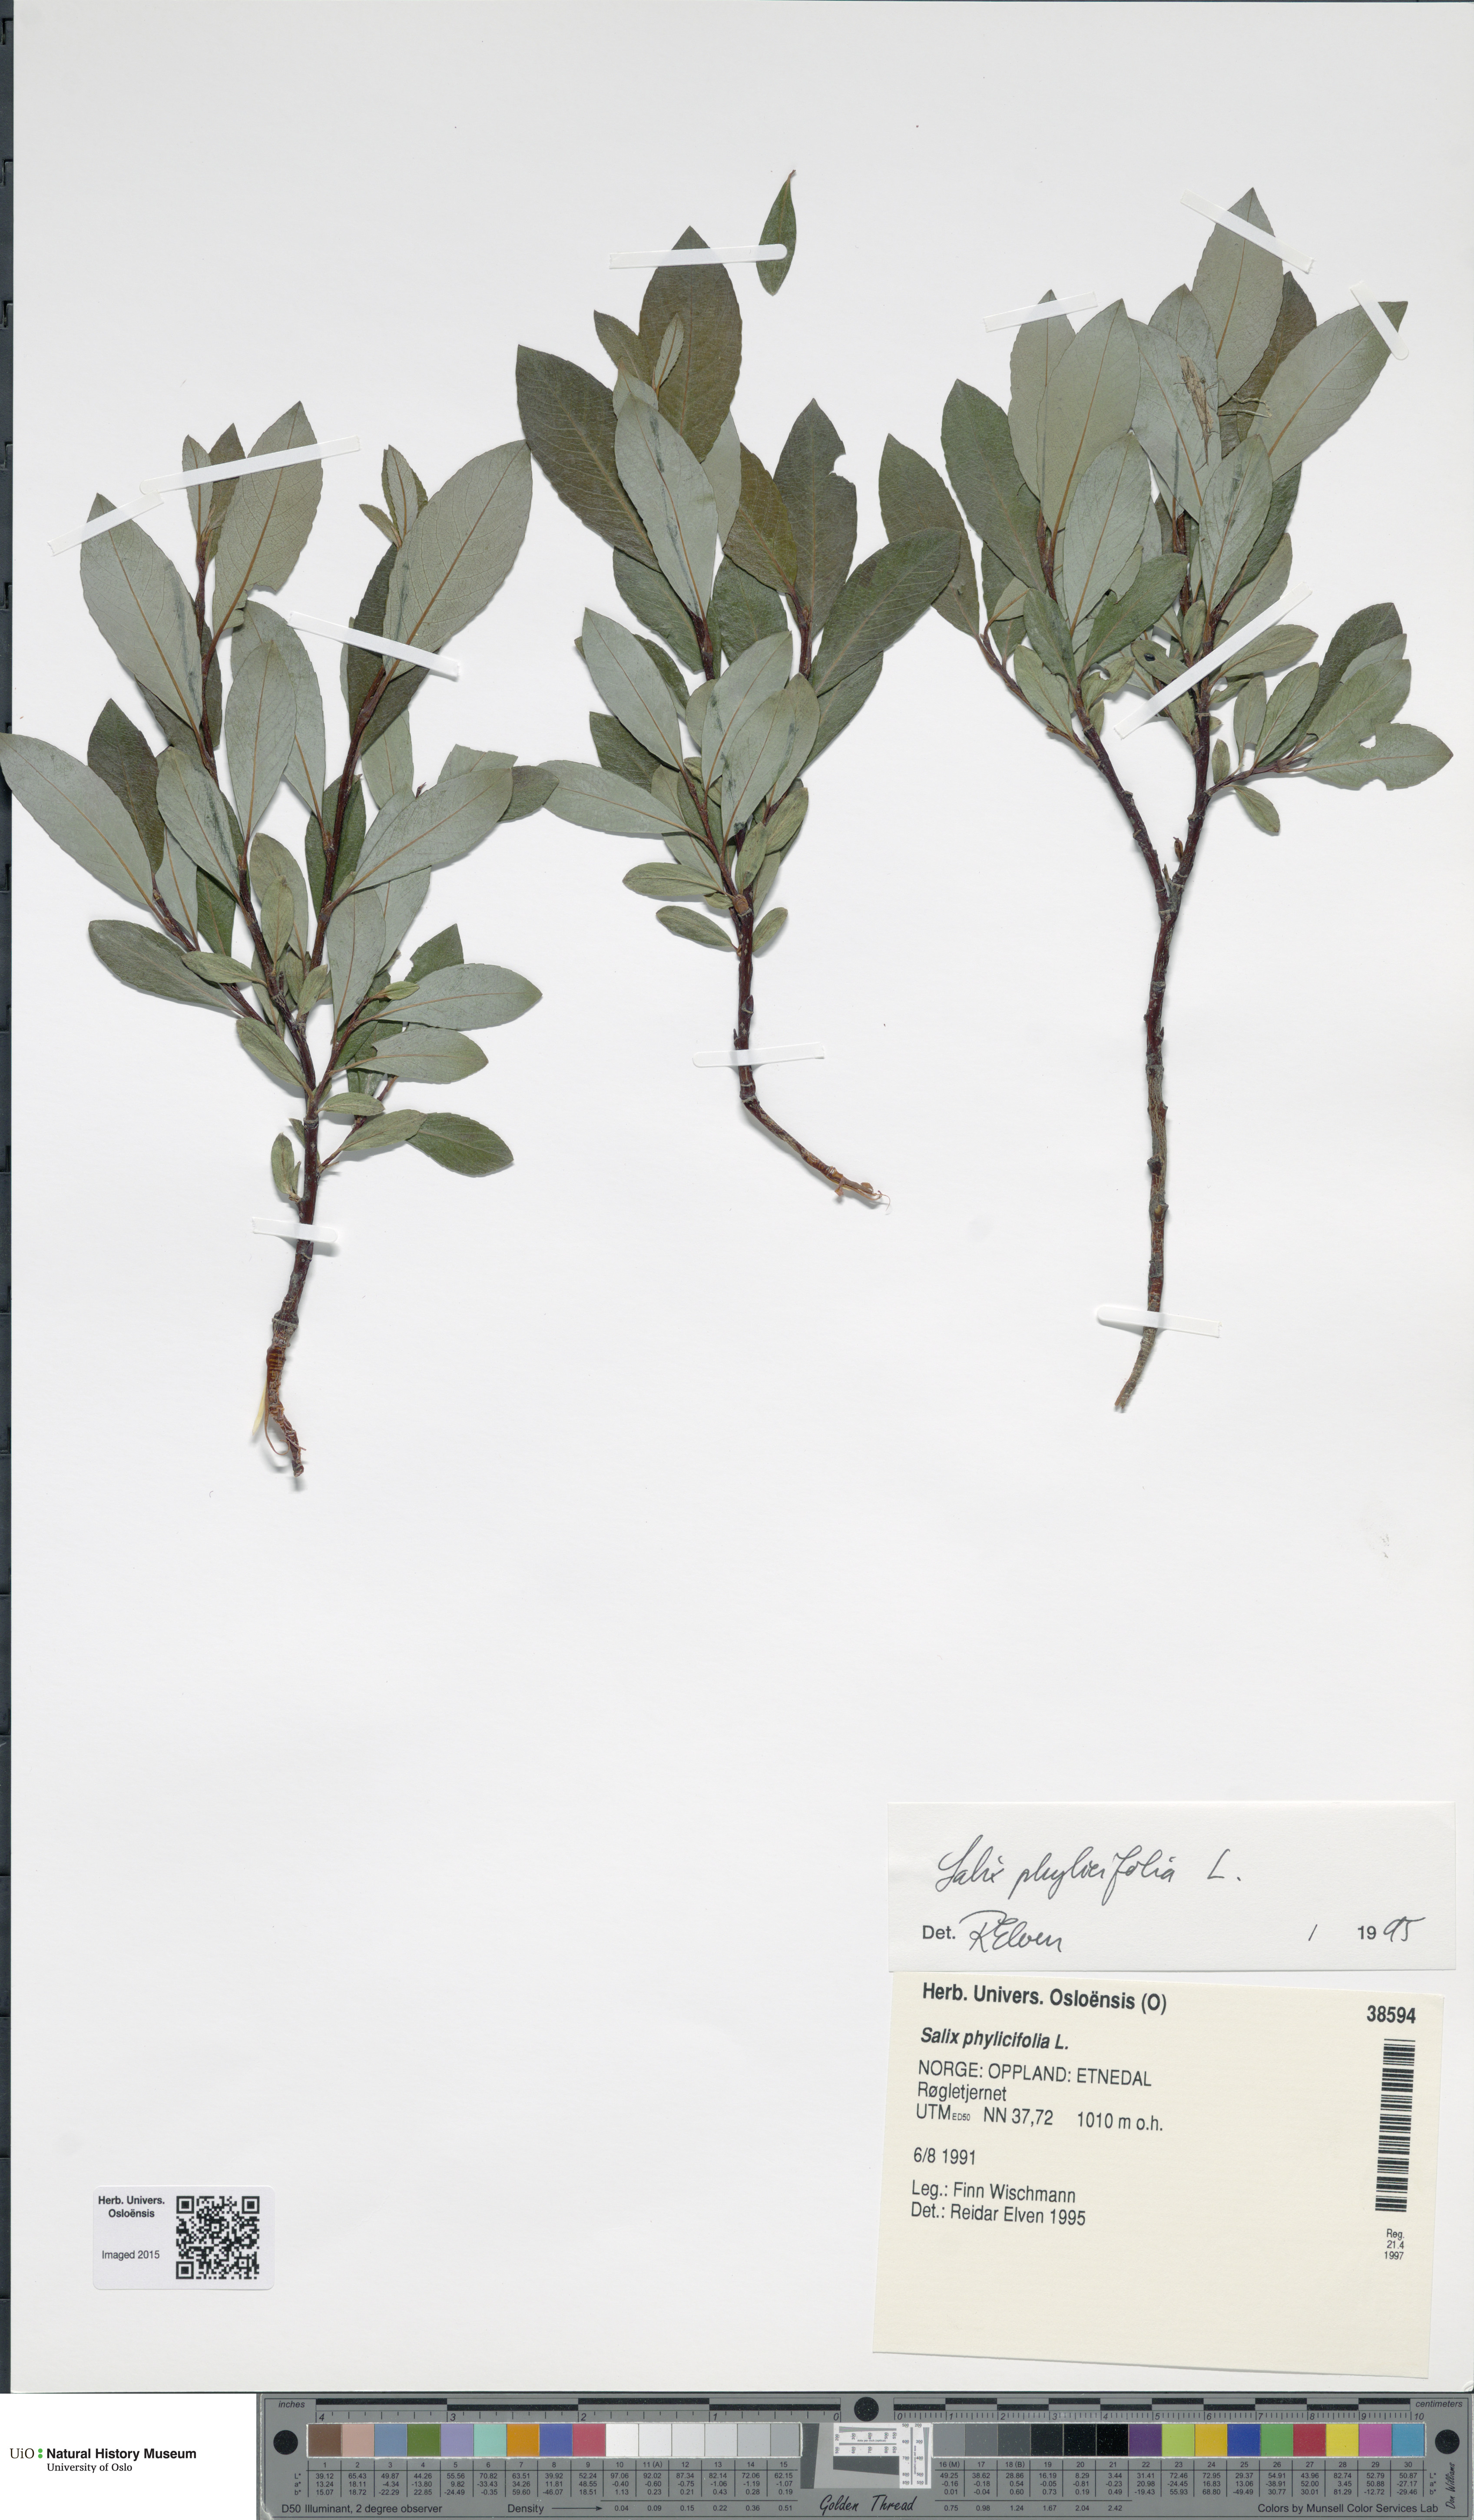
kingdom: Plantae
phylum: Tracheophyta
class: Magnoliopsida
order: Malpighiales
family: Salicaceae
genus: Salix
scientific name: Salix phylicifolia
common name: Tea-leaved willow
